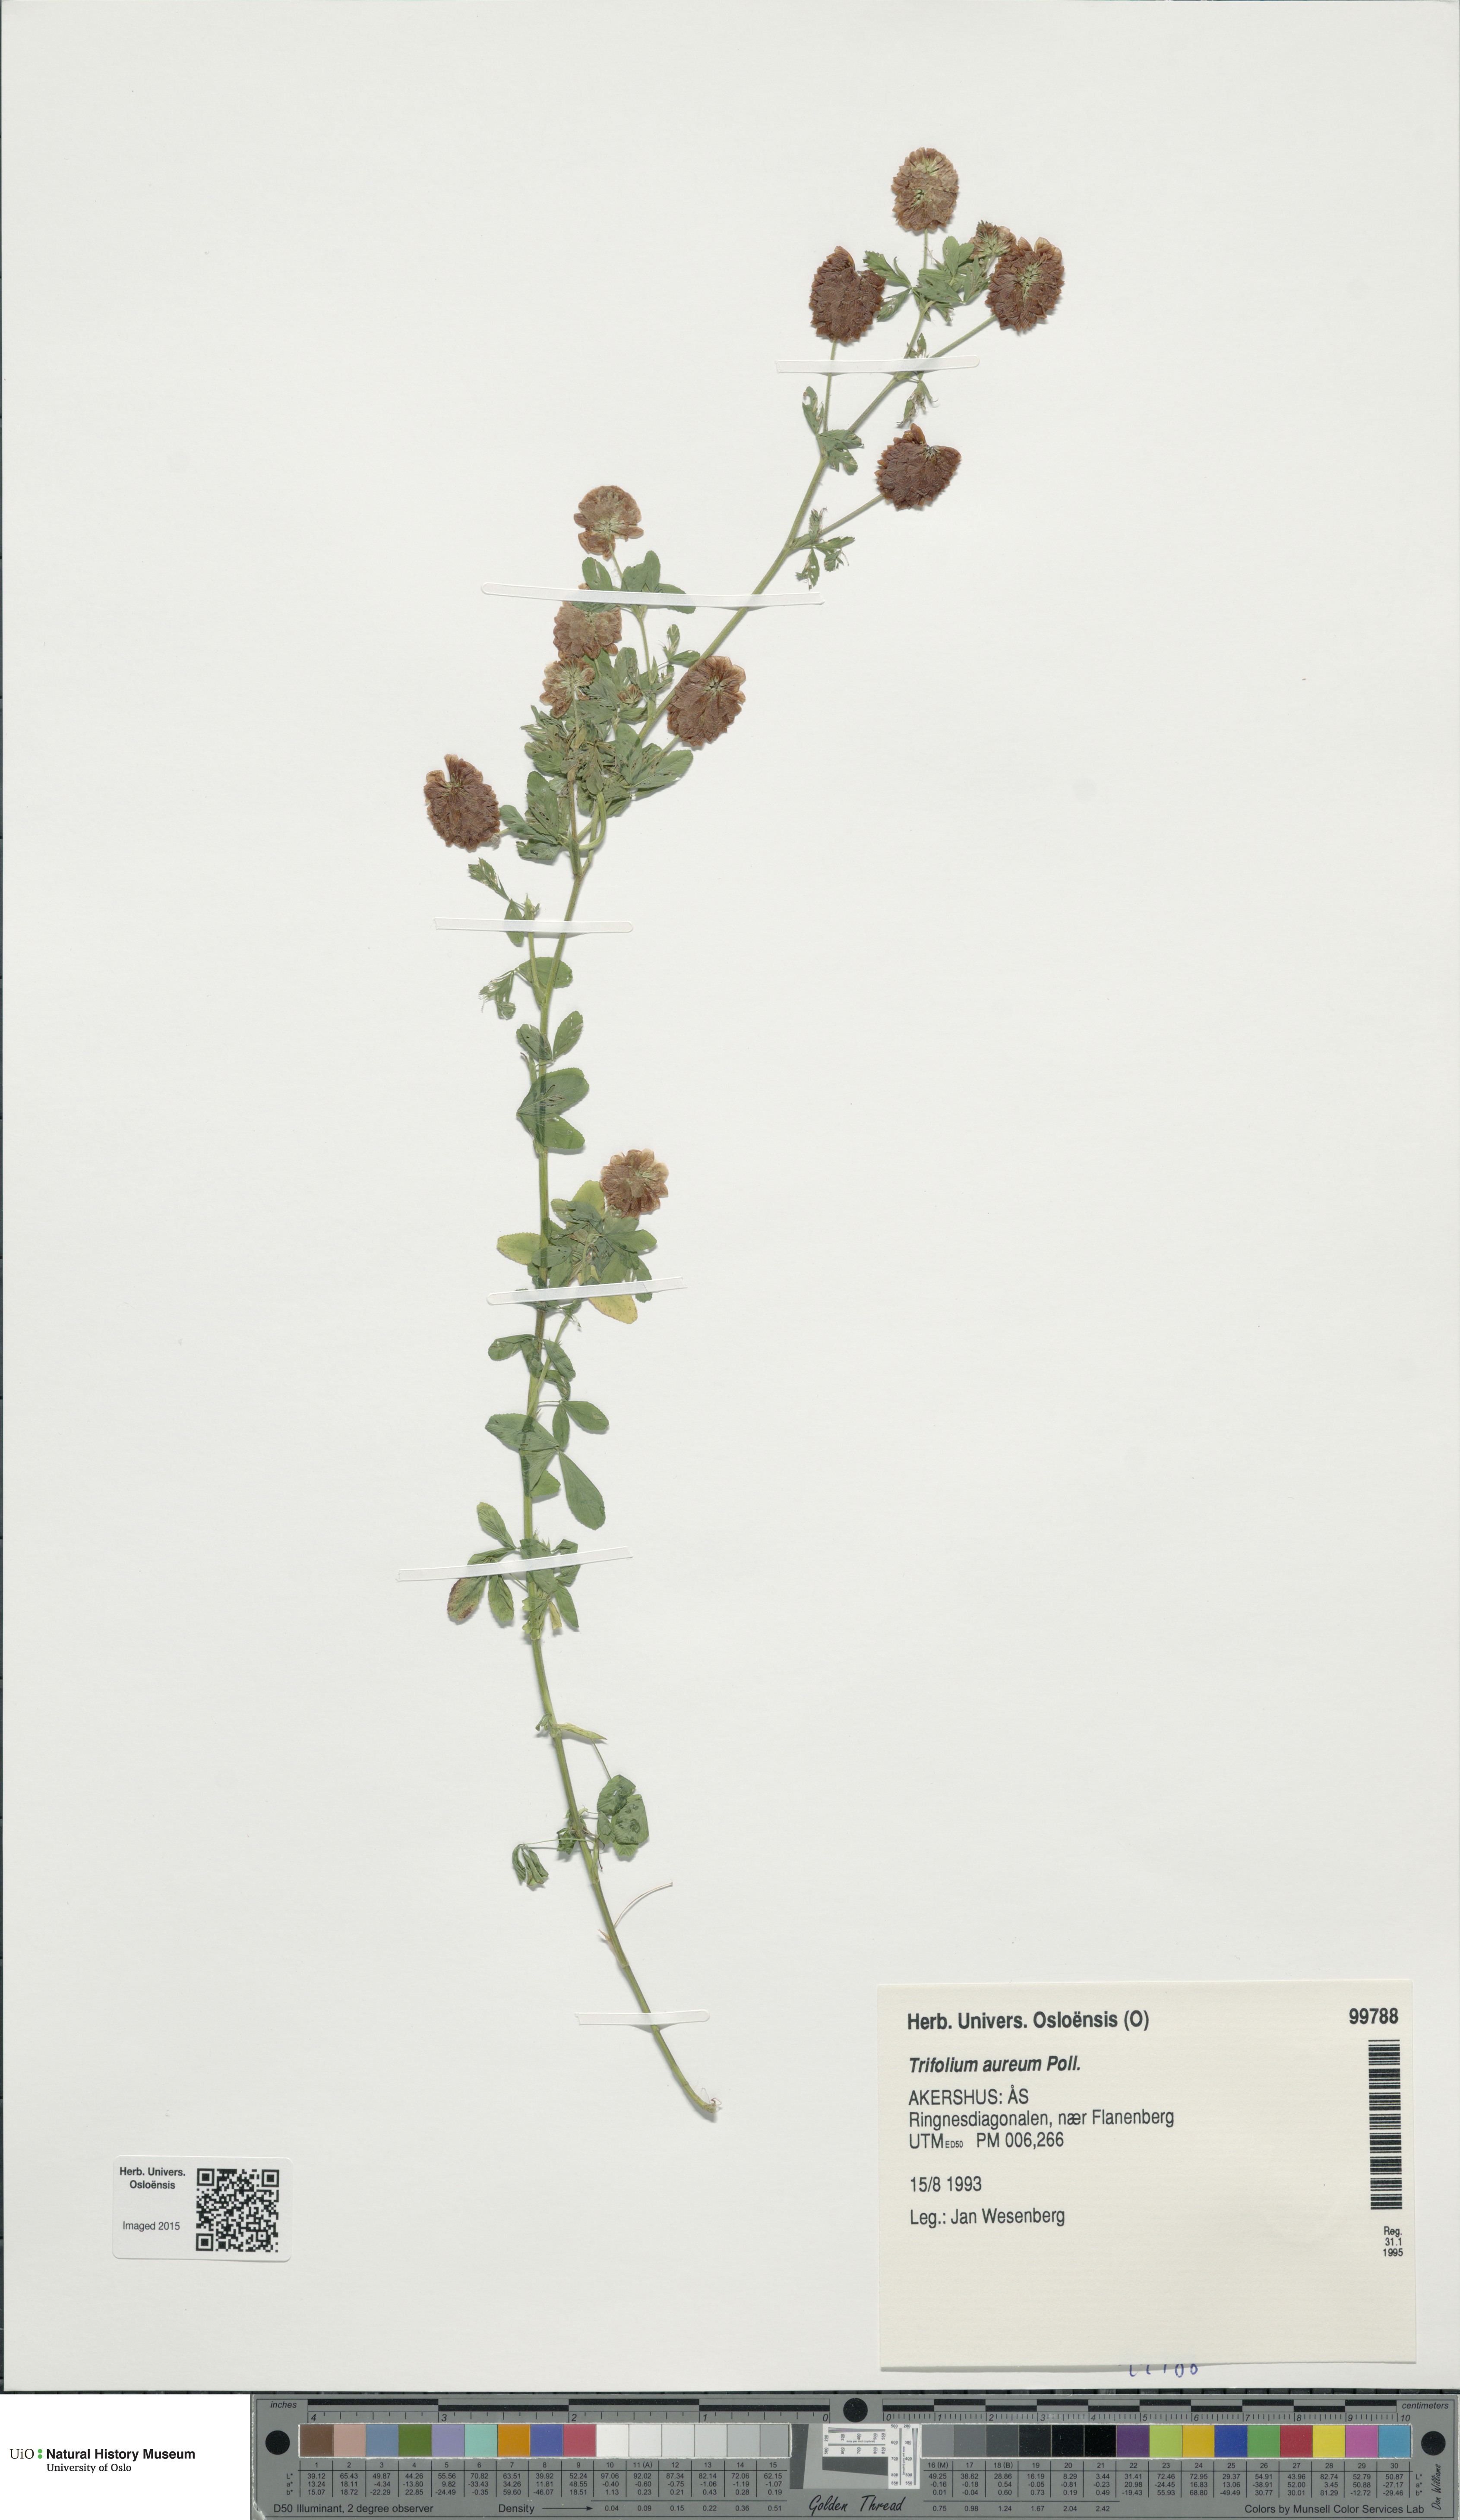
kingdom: Plantae
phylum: Tracheophyta
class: Magnoliopsida
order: Fabales
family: Fabaceae
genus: Trifolium
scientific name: Trifolium aureum
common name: Golden clover
